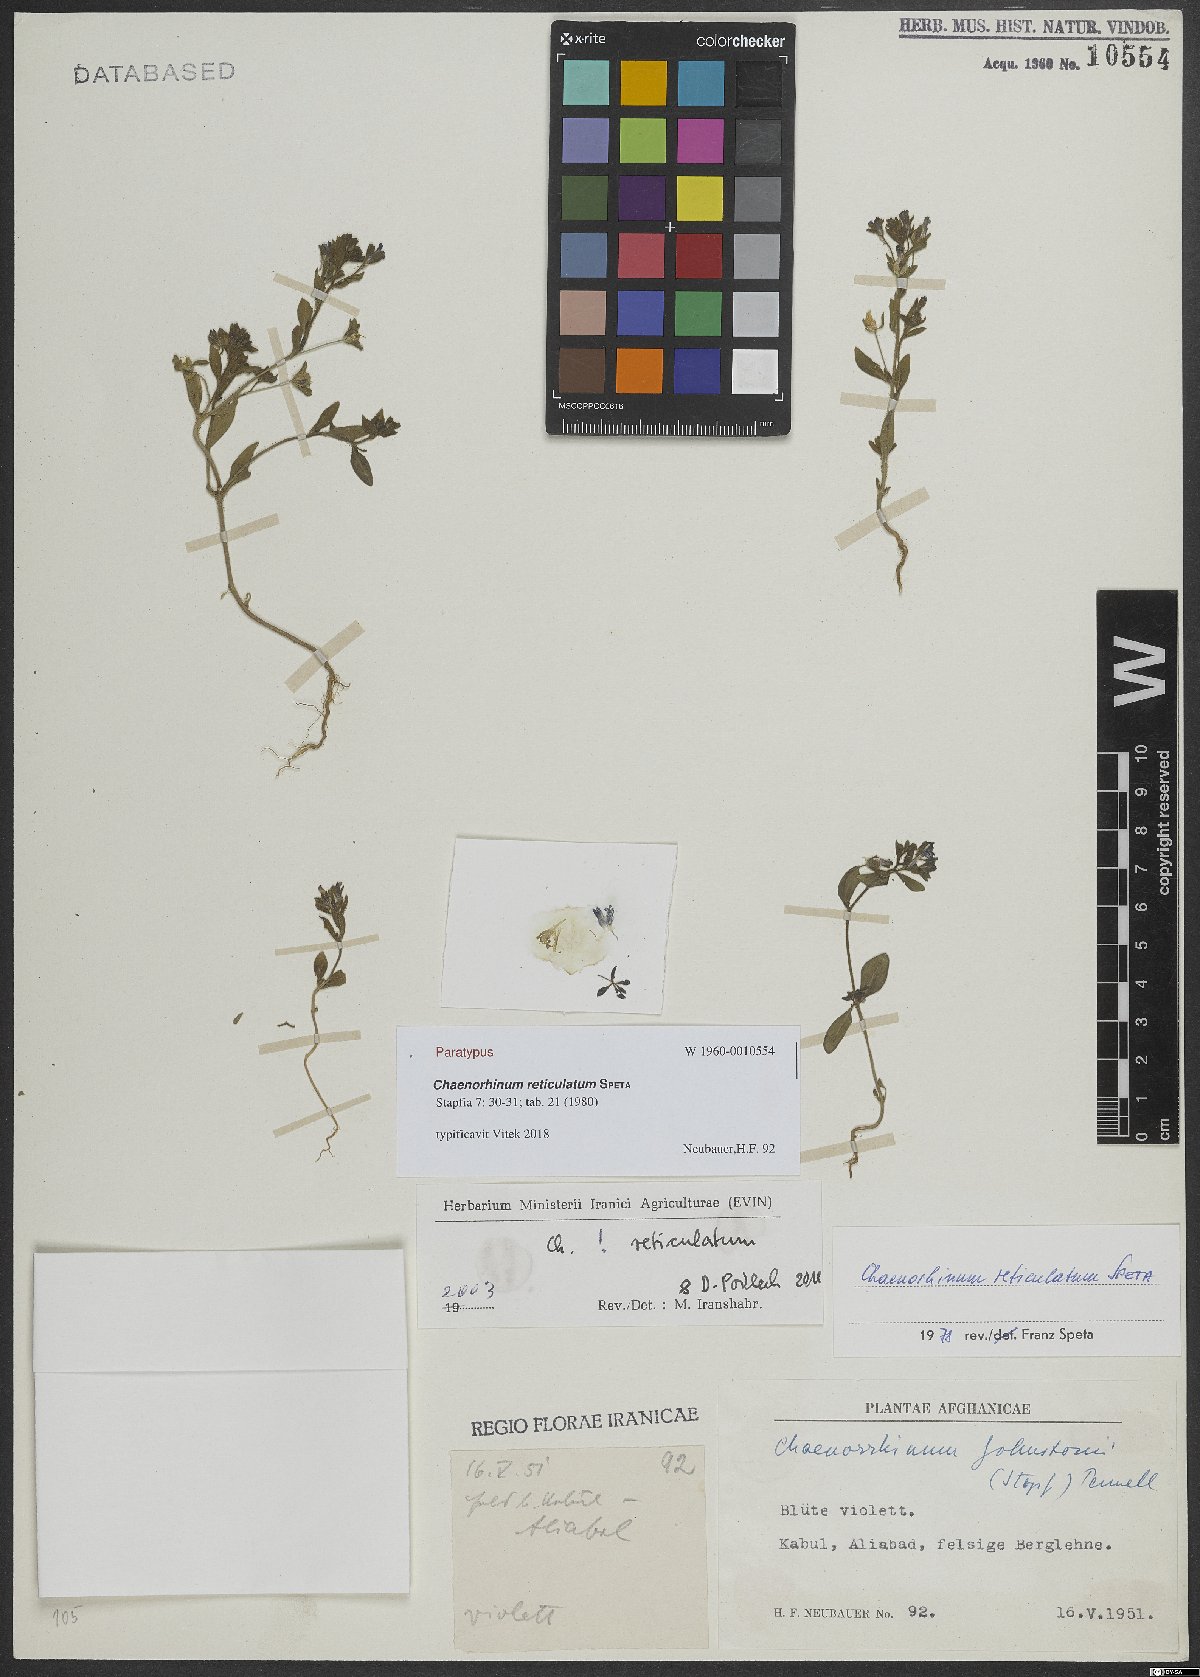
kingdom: Plantae
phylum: Tracheophyta
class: Magnoliopsida
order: Lamiales
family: Plantaginaceae
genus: Chaenorhinum
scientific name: Chaenorhinum reticulatum
